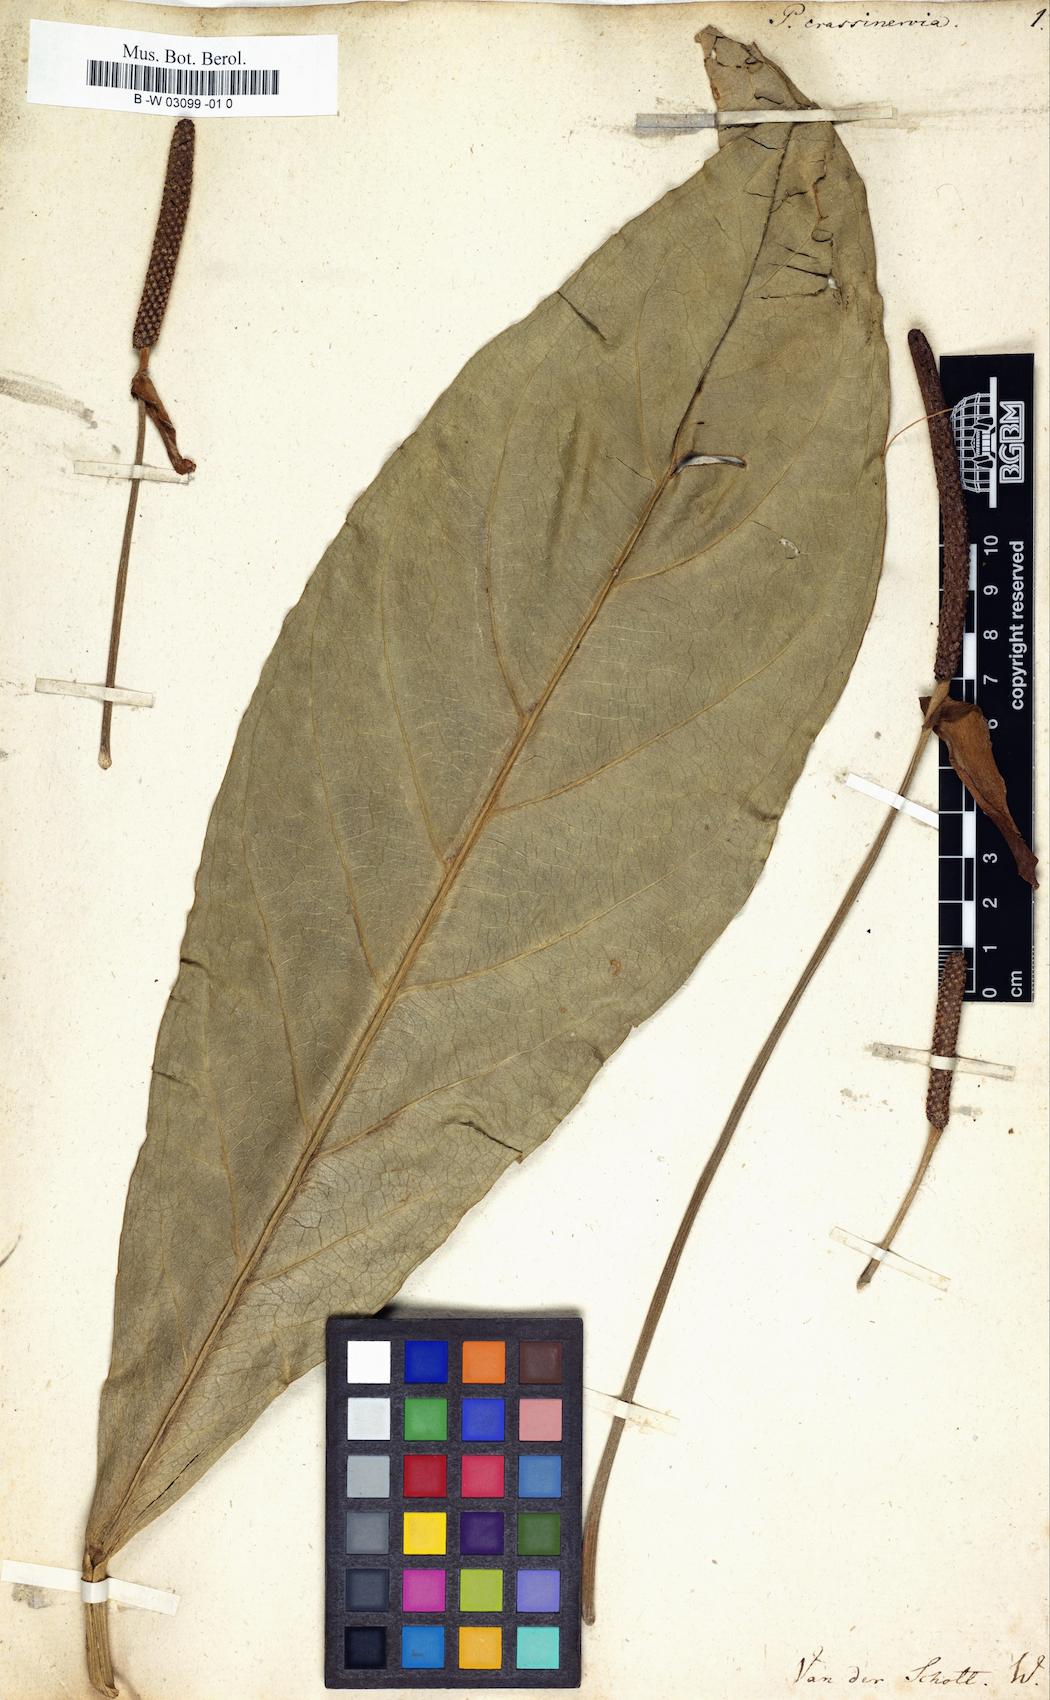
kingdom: Plantae
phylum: Tracheophyta
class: Liliopsida
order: Alismatales
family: Araceae
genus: Anthurium
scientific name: Anthurium crassinervium
